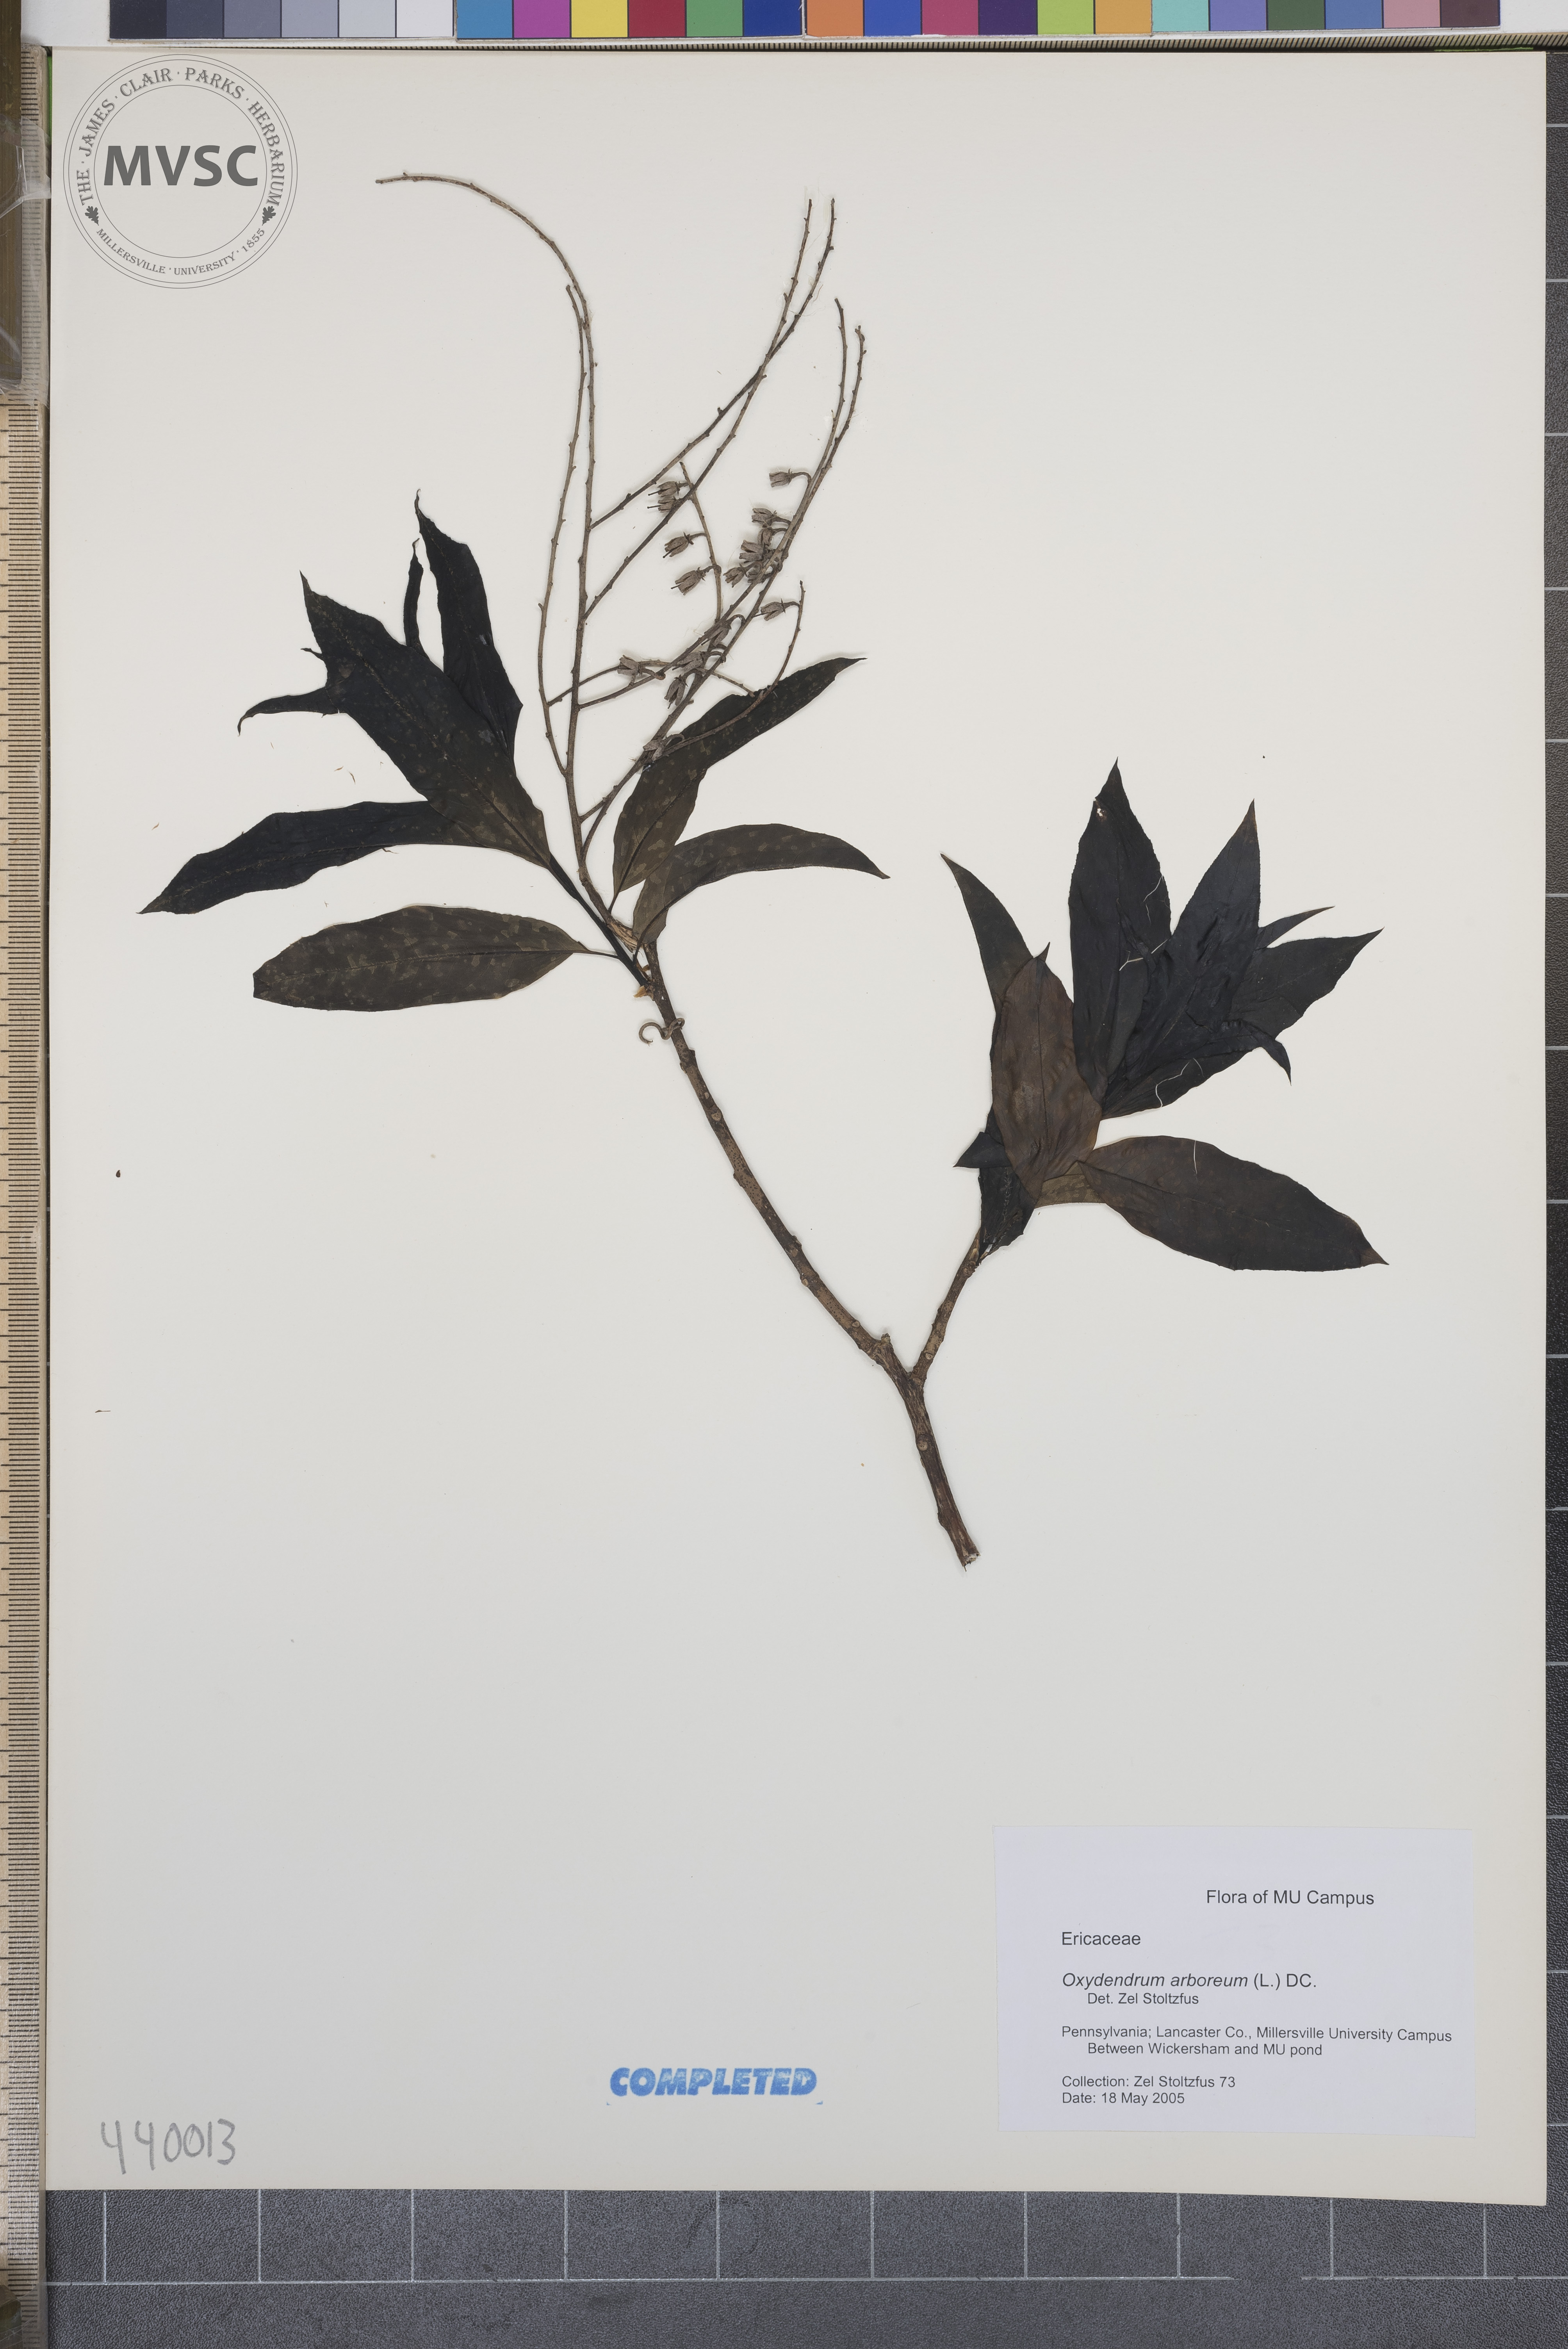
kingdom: Plantae
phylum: Tracheophyta
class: Magnoliopsida
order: Ericales
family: Ericaceae
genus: Oxydendrum
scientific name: Oxydendrum arboreum
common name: Sourwood
